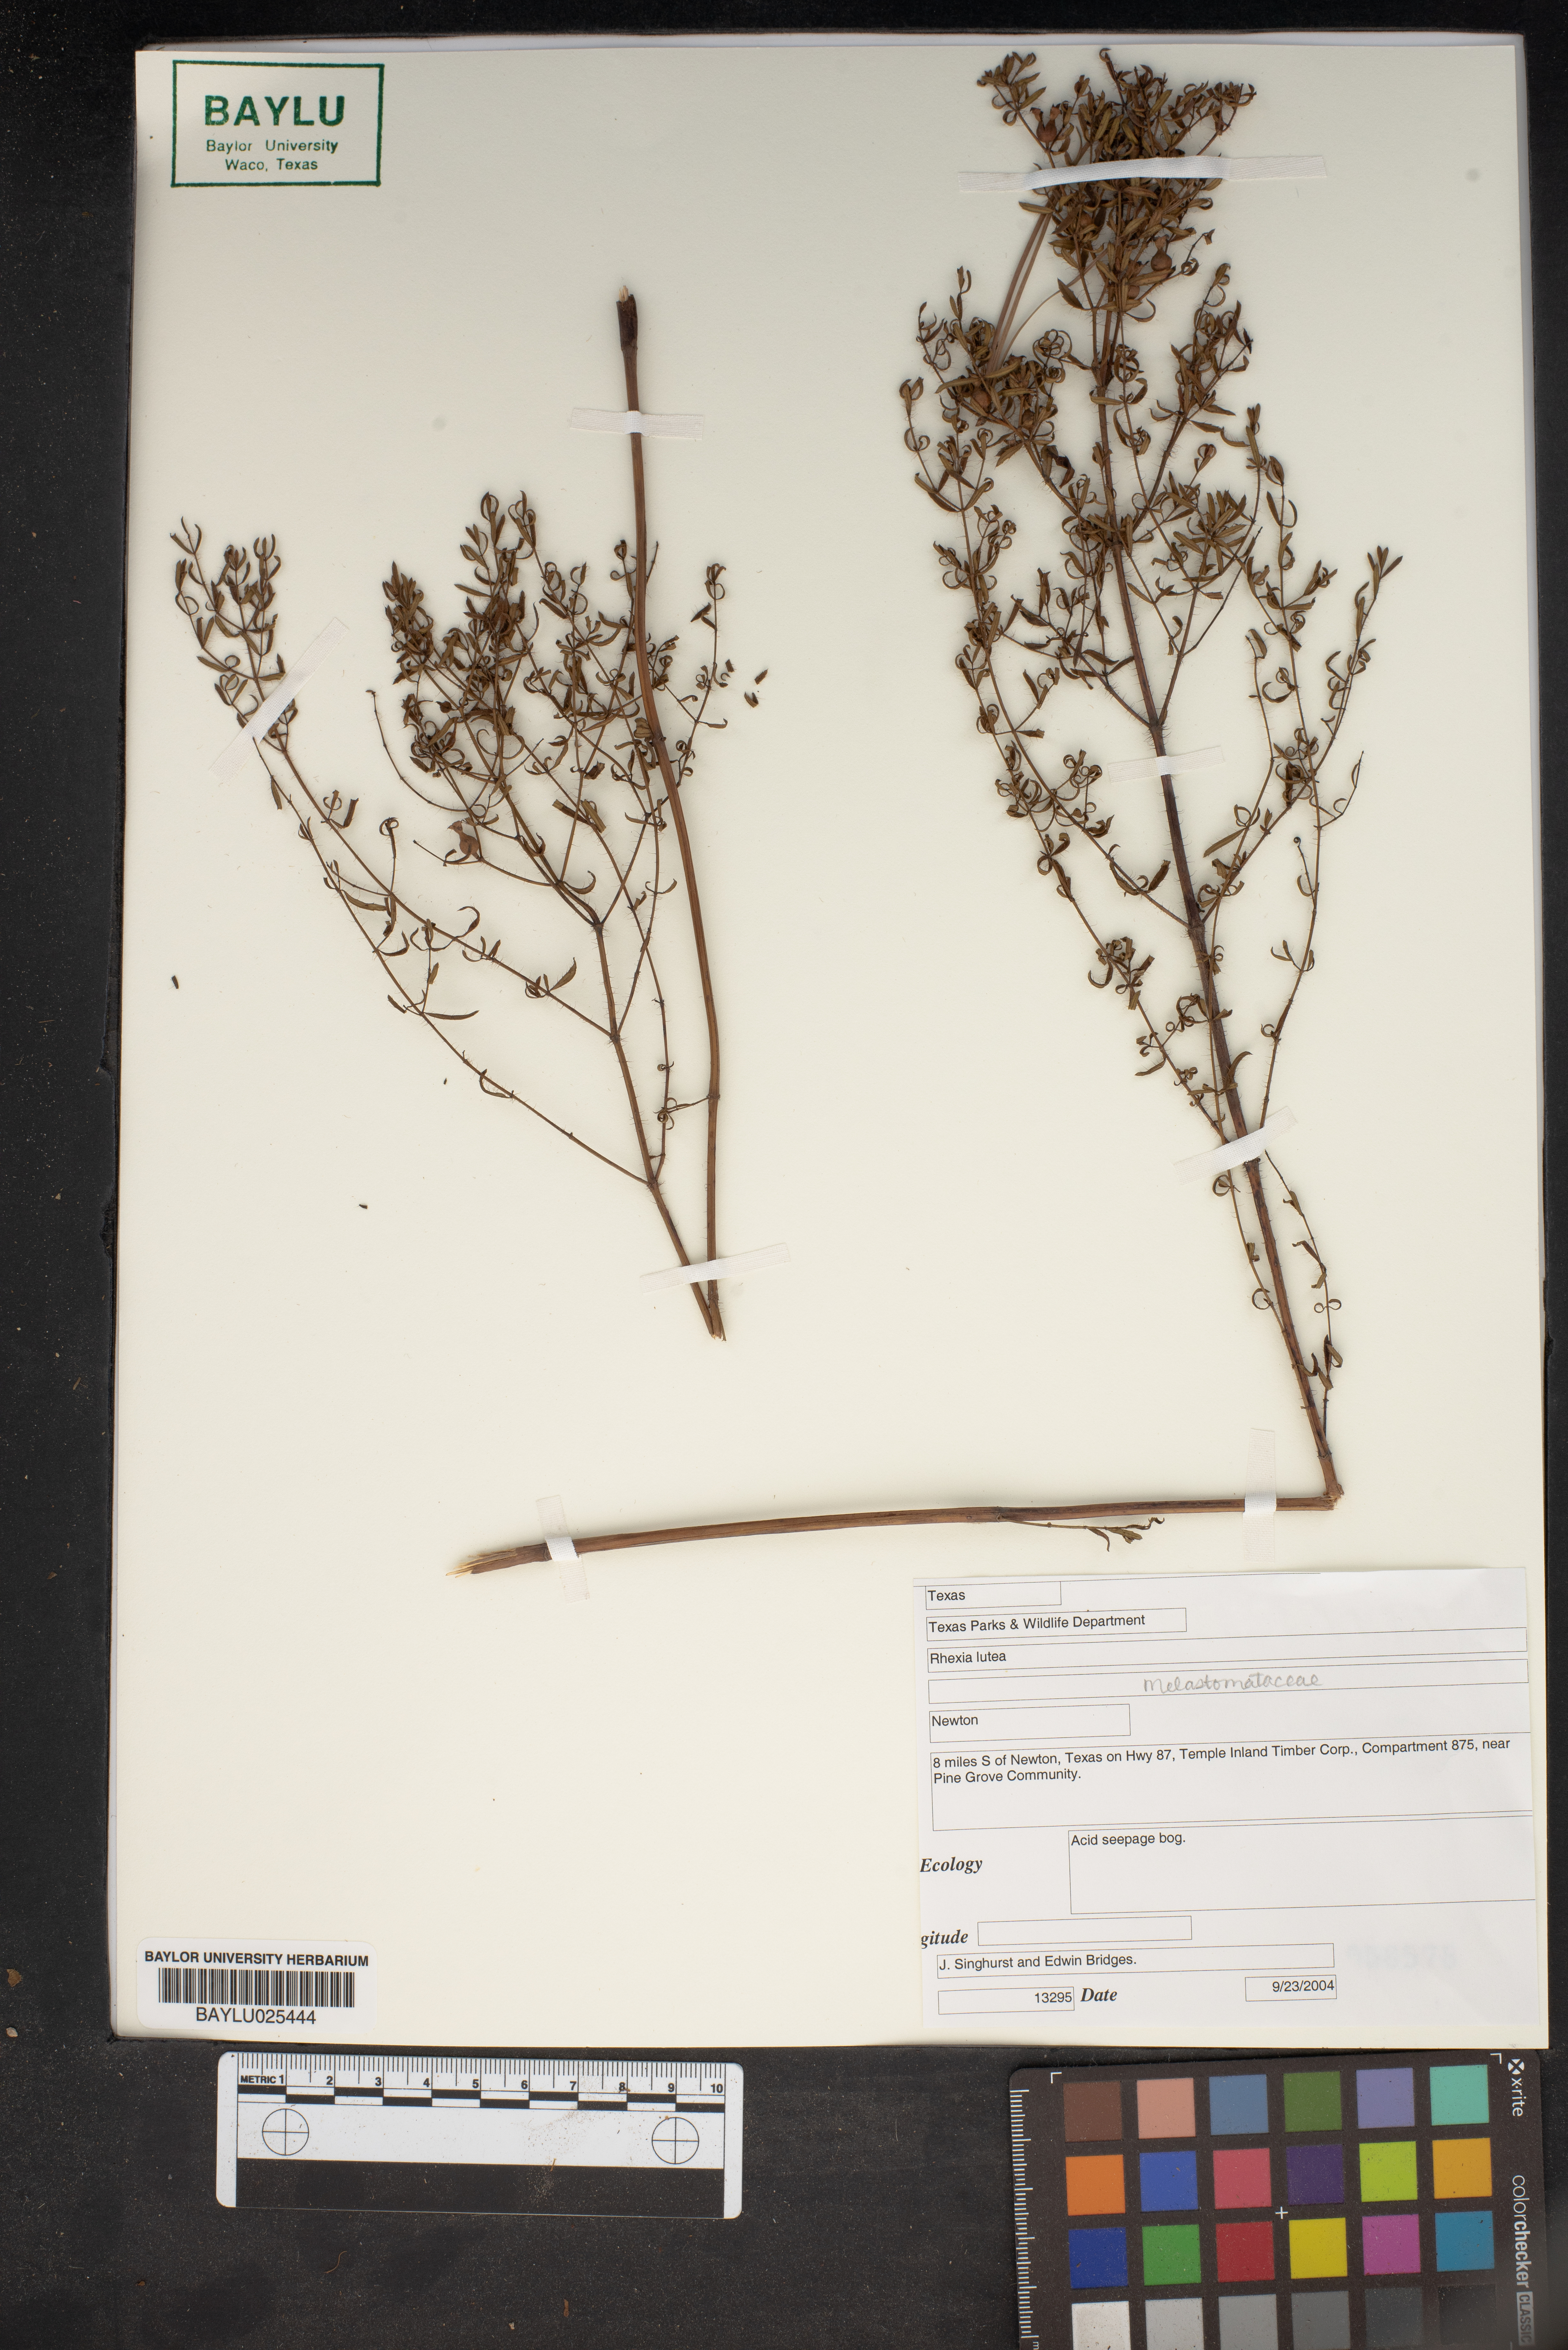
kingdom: Plantae
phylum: Tracheophyta
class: Magnoliopsida
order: Myrtales
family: Melastomataceae
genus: Rhexia
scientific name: Rhexia lutea
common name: Golden meadow-beauty
